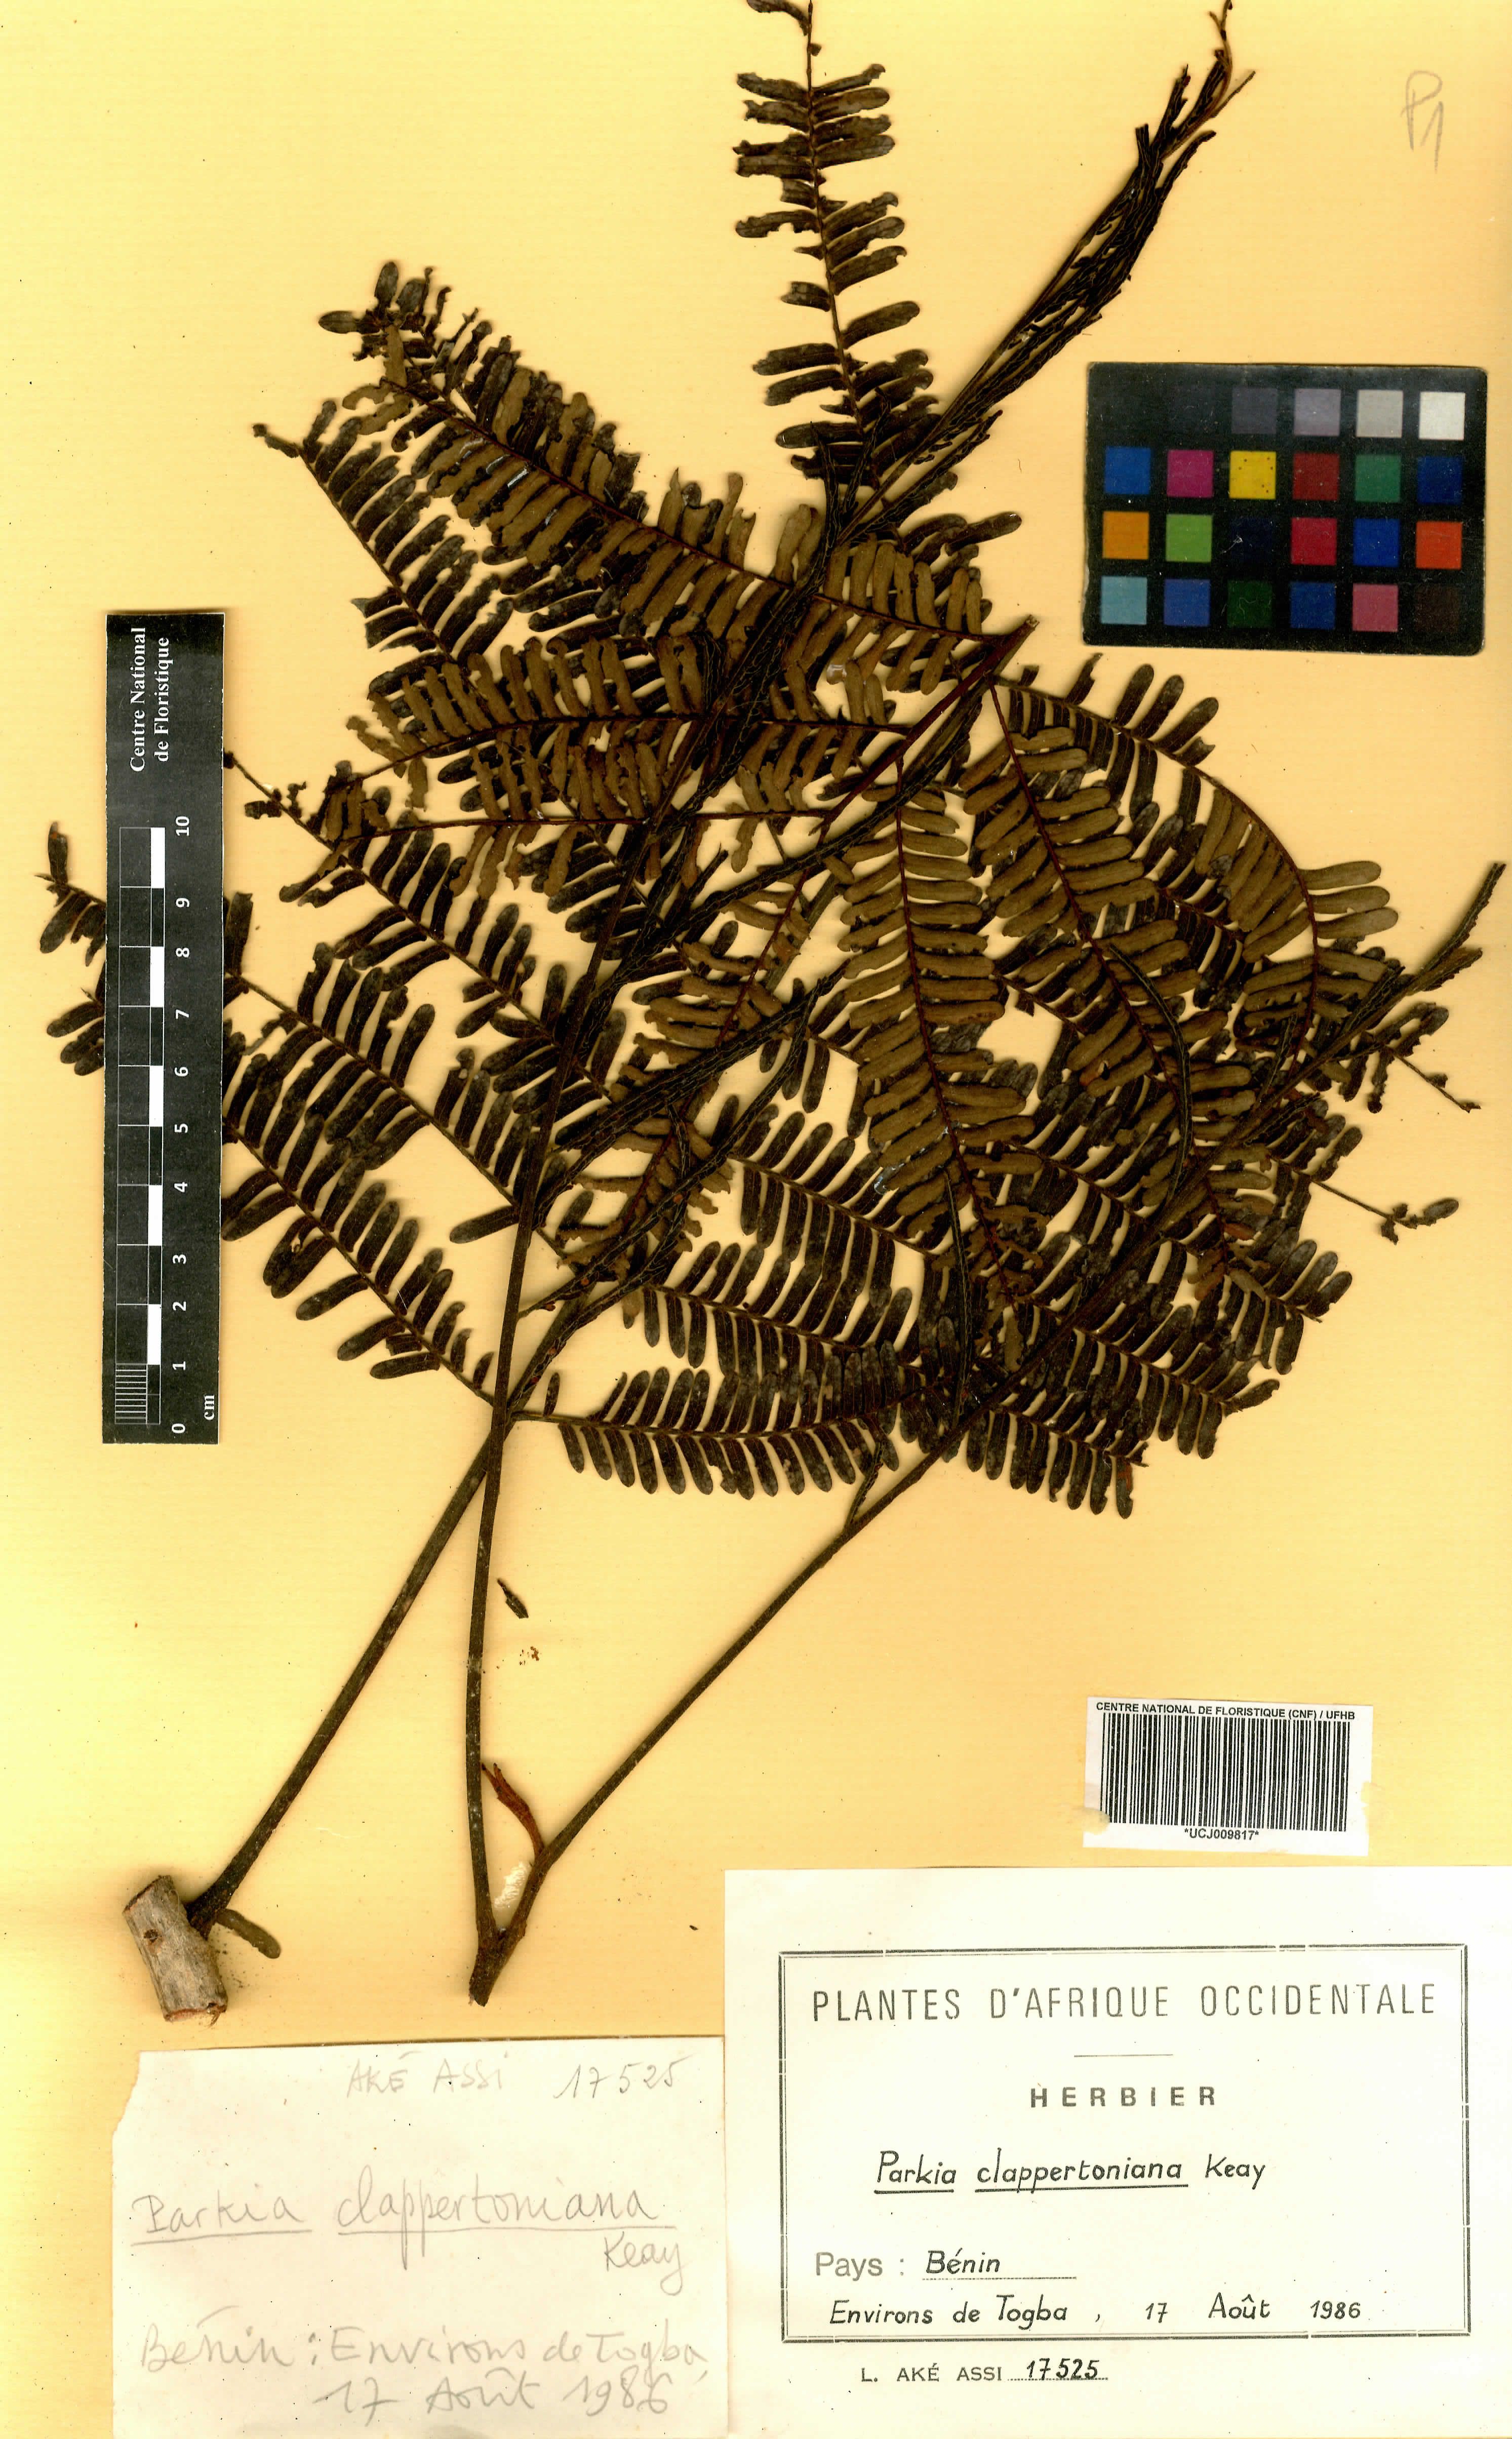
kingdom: Plantae
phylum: Tracheophyta
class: Magnoliopsida
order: Fabales
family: Fabaceae
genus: Parkia
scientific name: Parkia biglobosa
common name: African locust-bean
